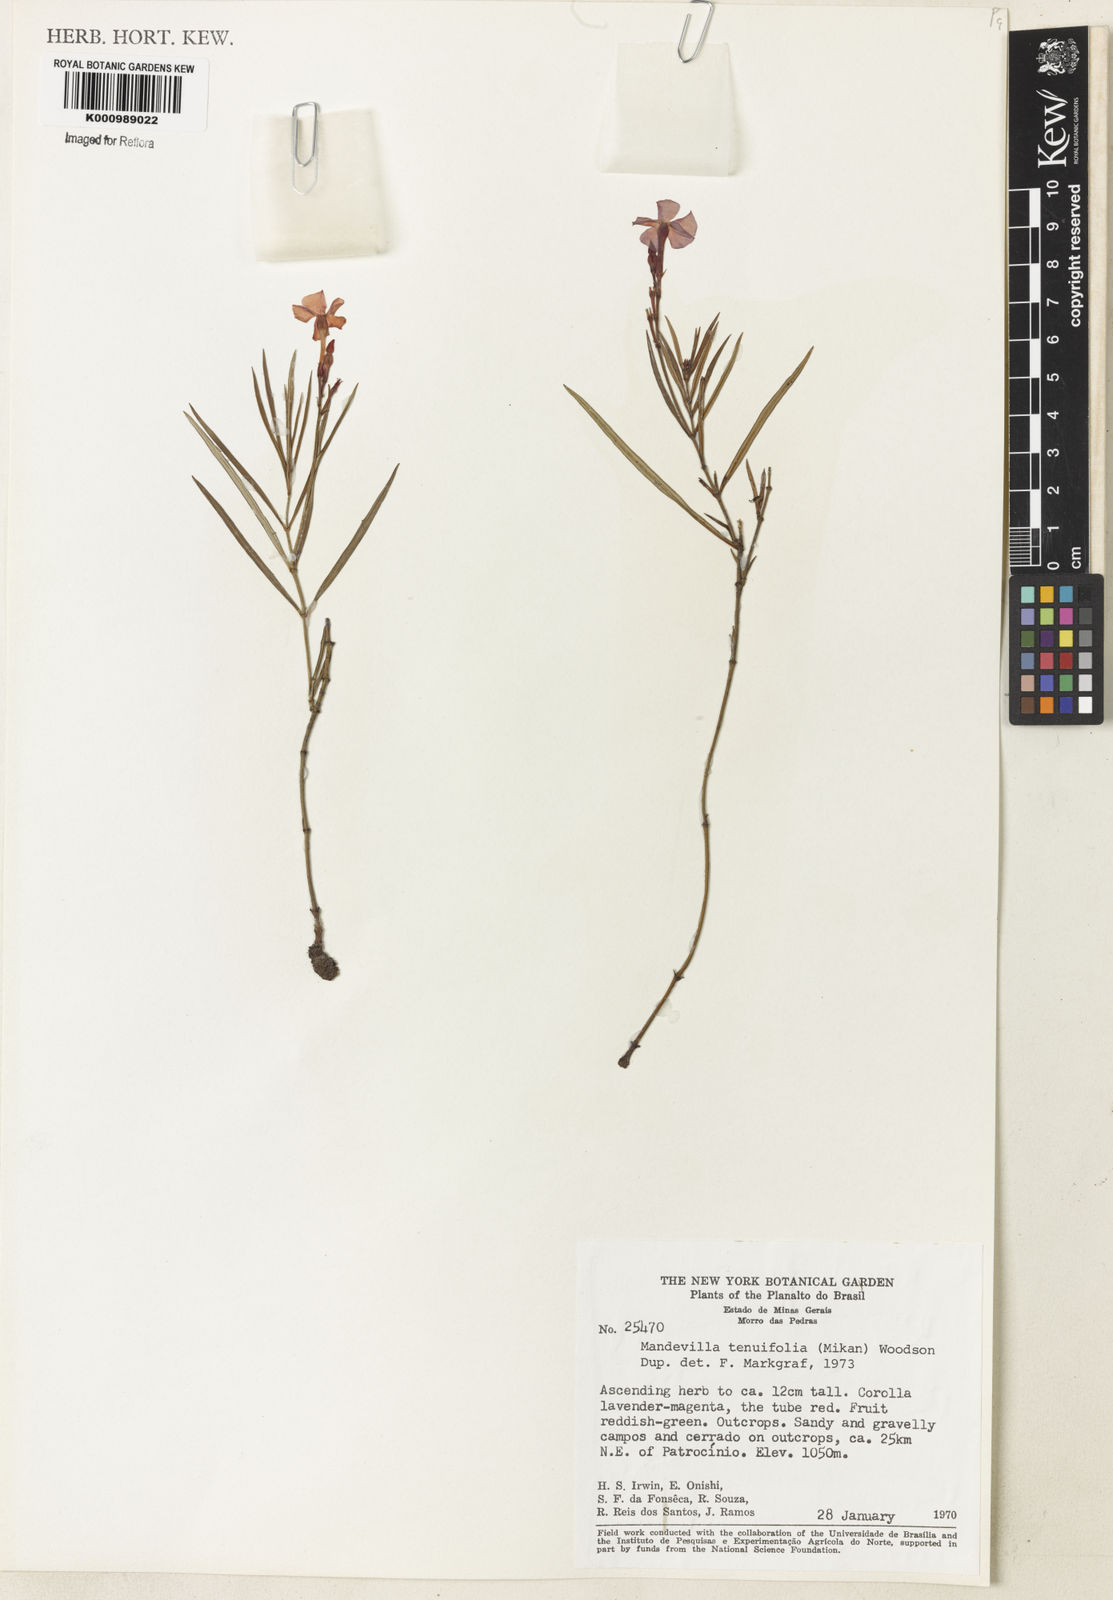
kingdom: Plantae
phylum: Tracheophyta
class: Magnoliopsida
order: Gentianales
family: Apocynaceae
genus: Mandevilla
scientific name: Mandevilla tenuifolia
